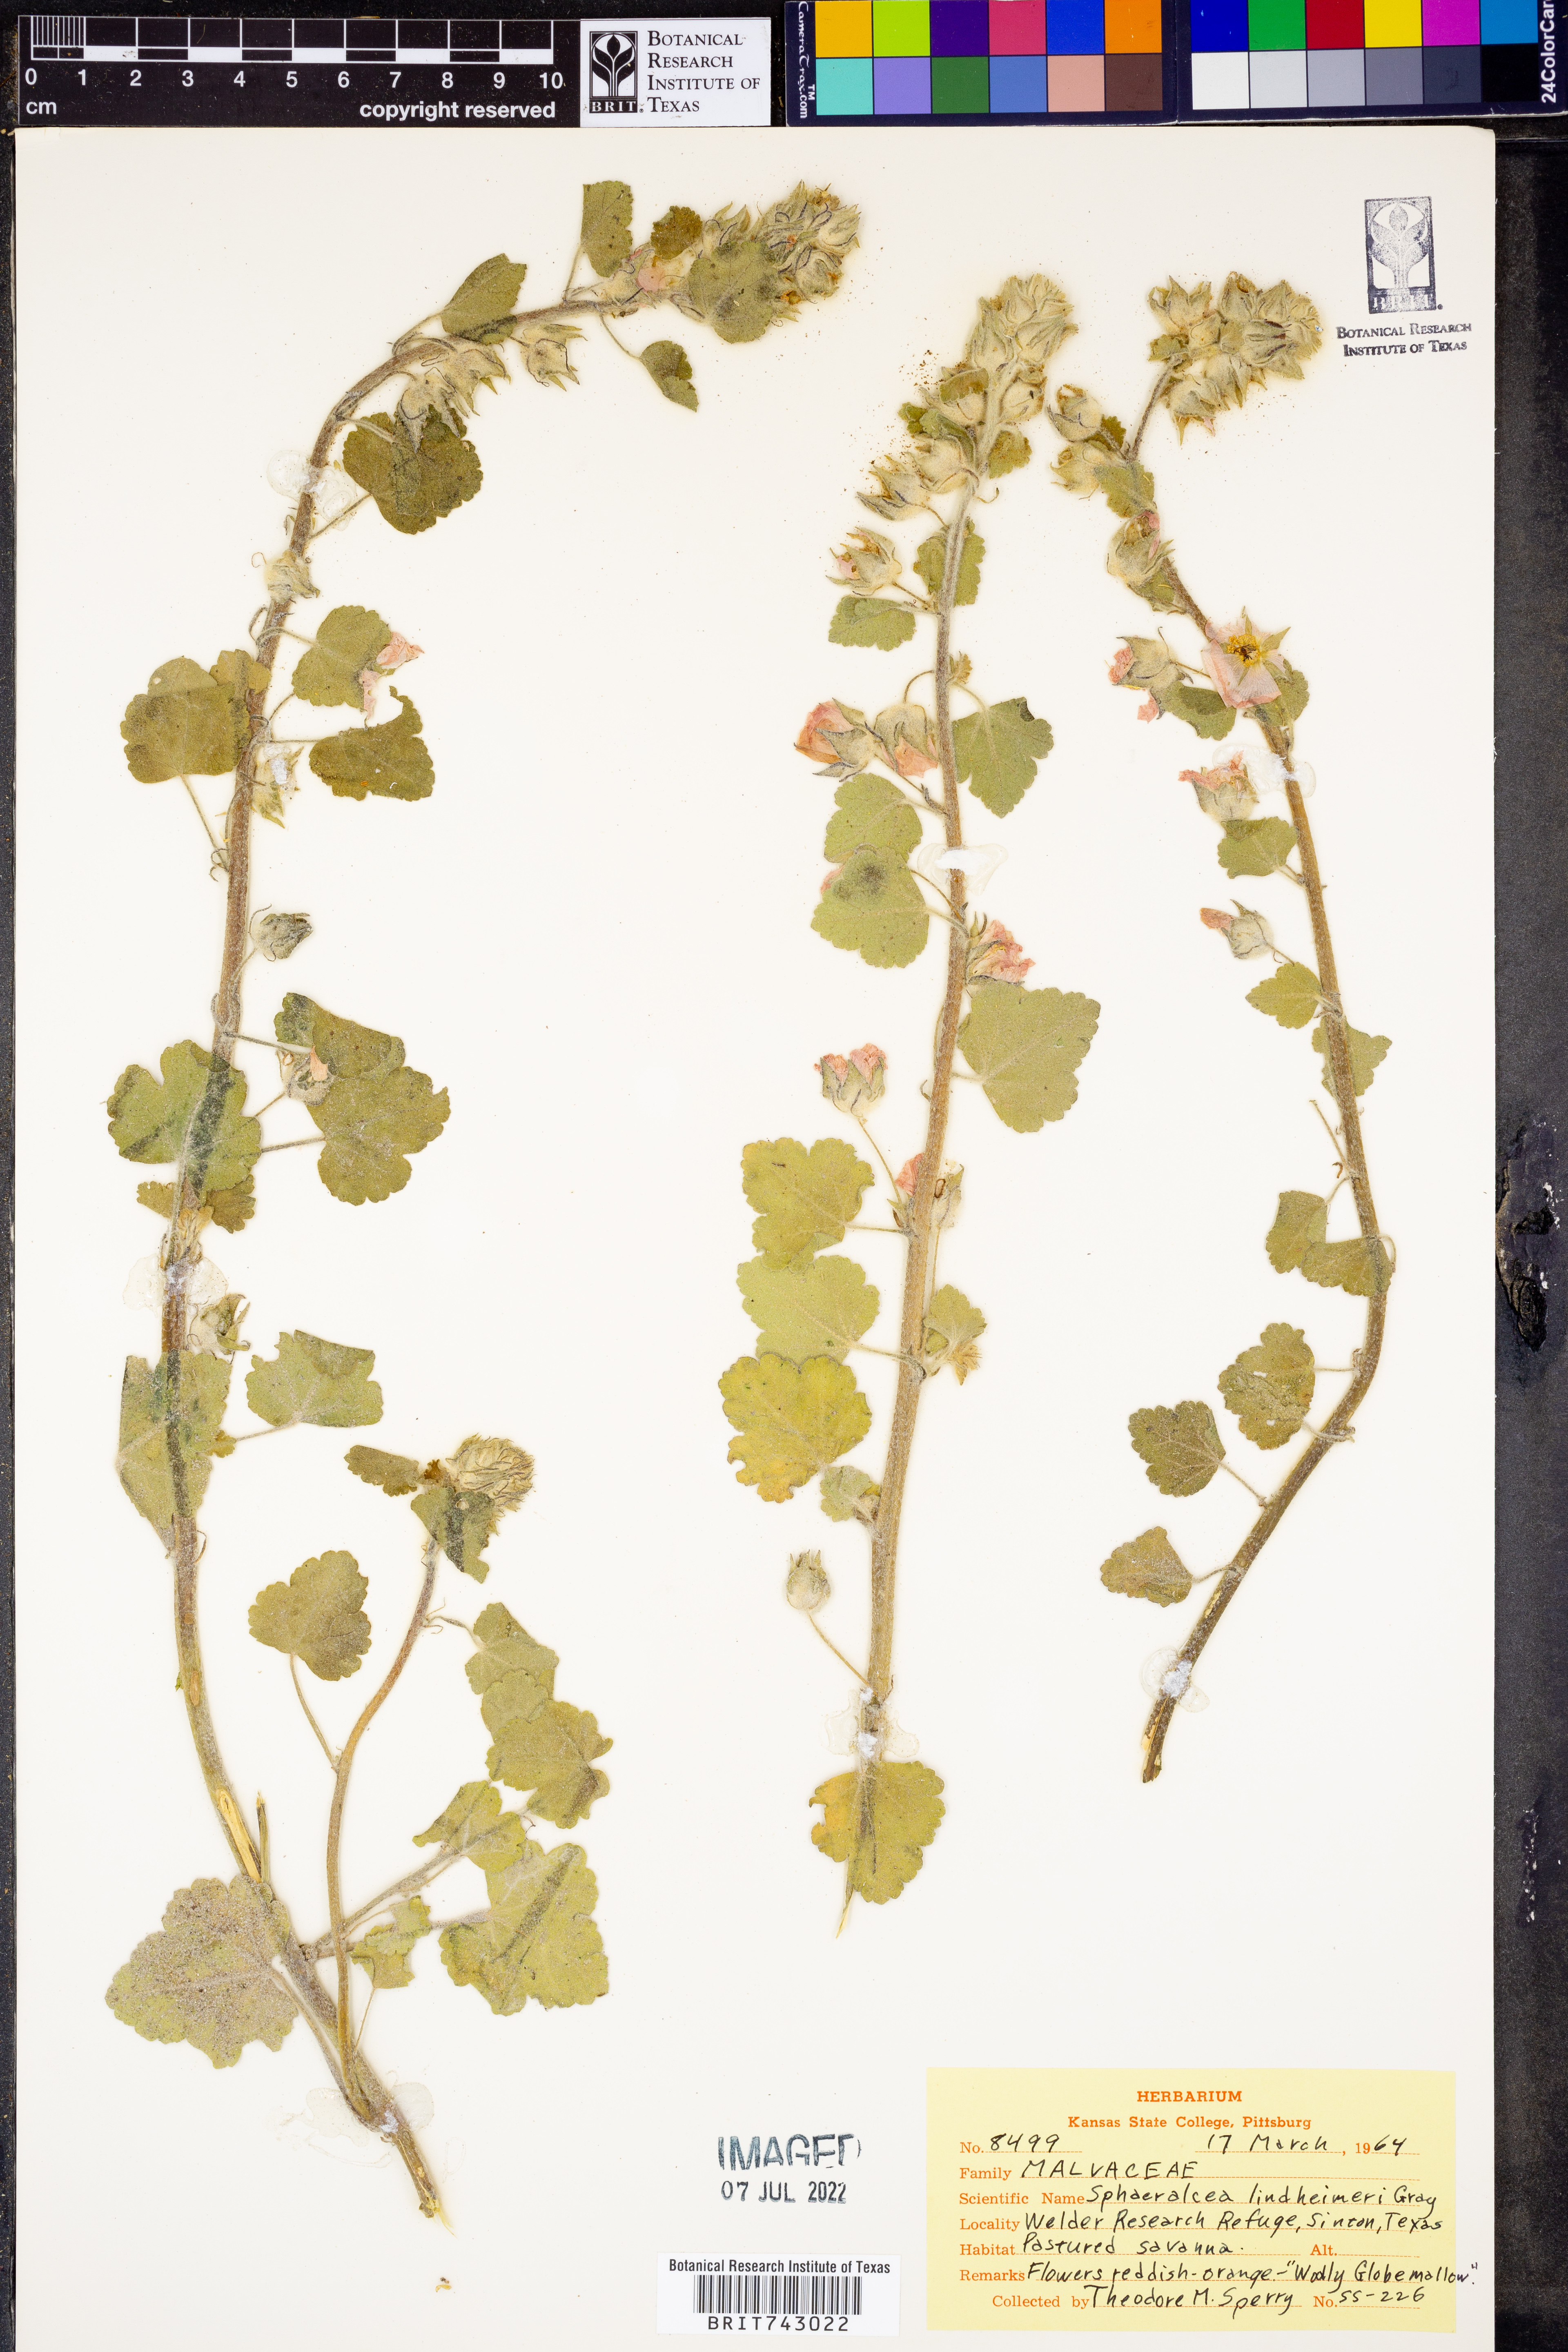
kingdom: Plantae
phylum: Tracheophyta
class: Magnoliopsida
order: Malvales
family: Malvaceae
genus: Sphaeralcea
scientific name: Sphaeralcea lindheimeri
